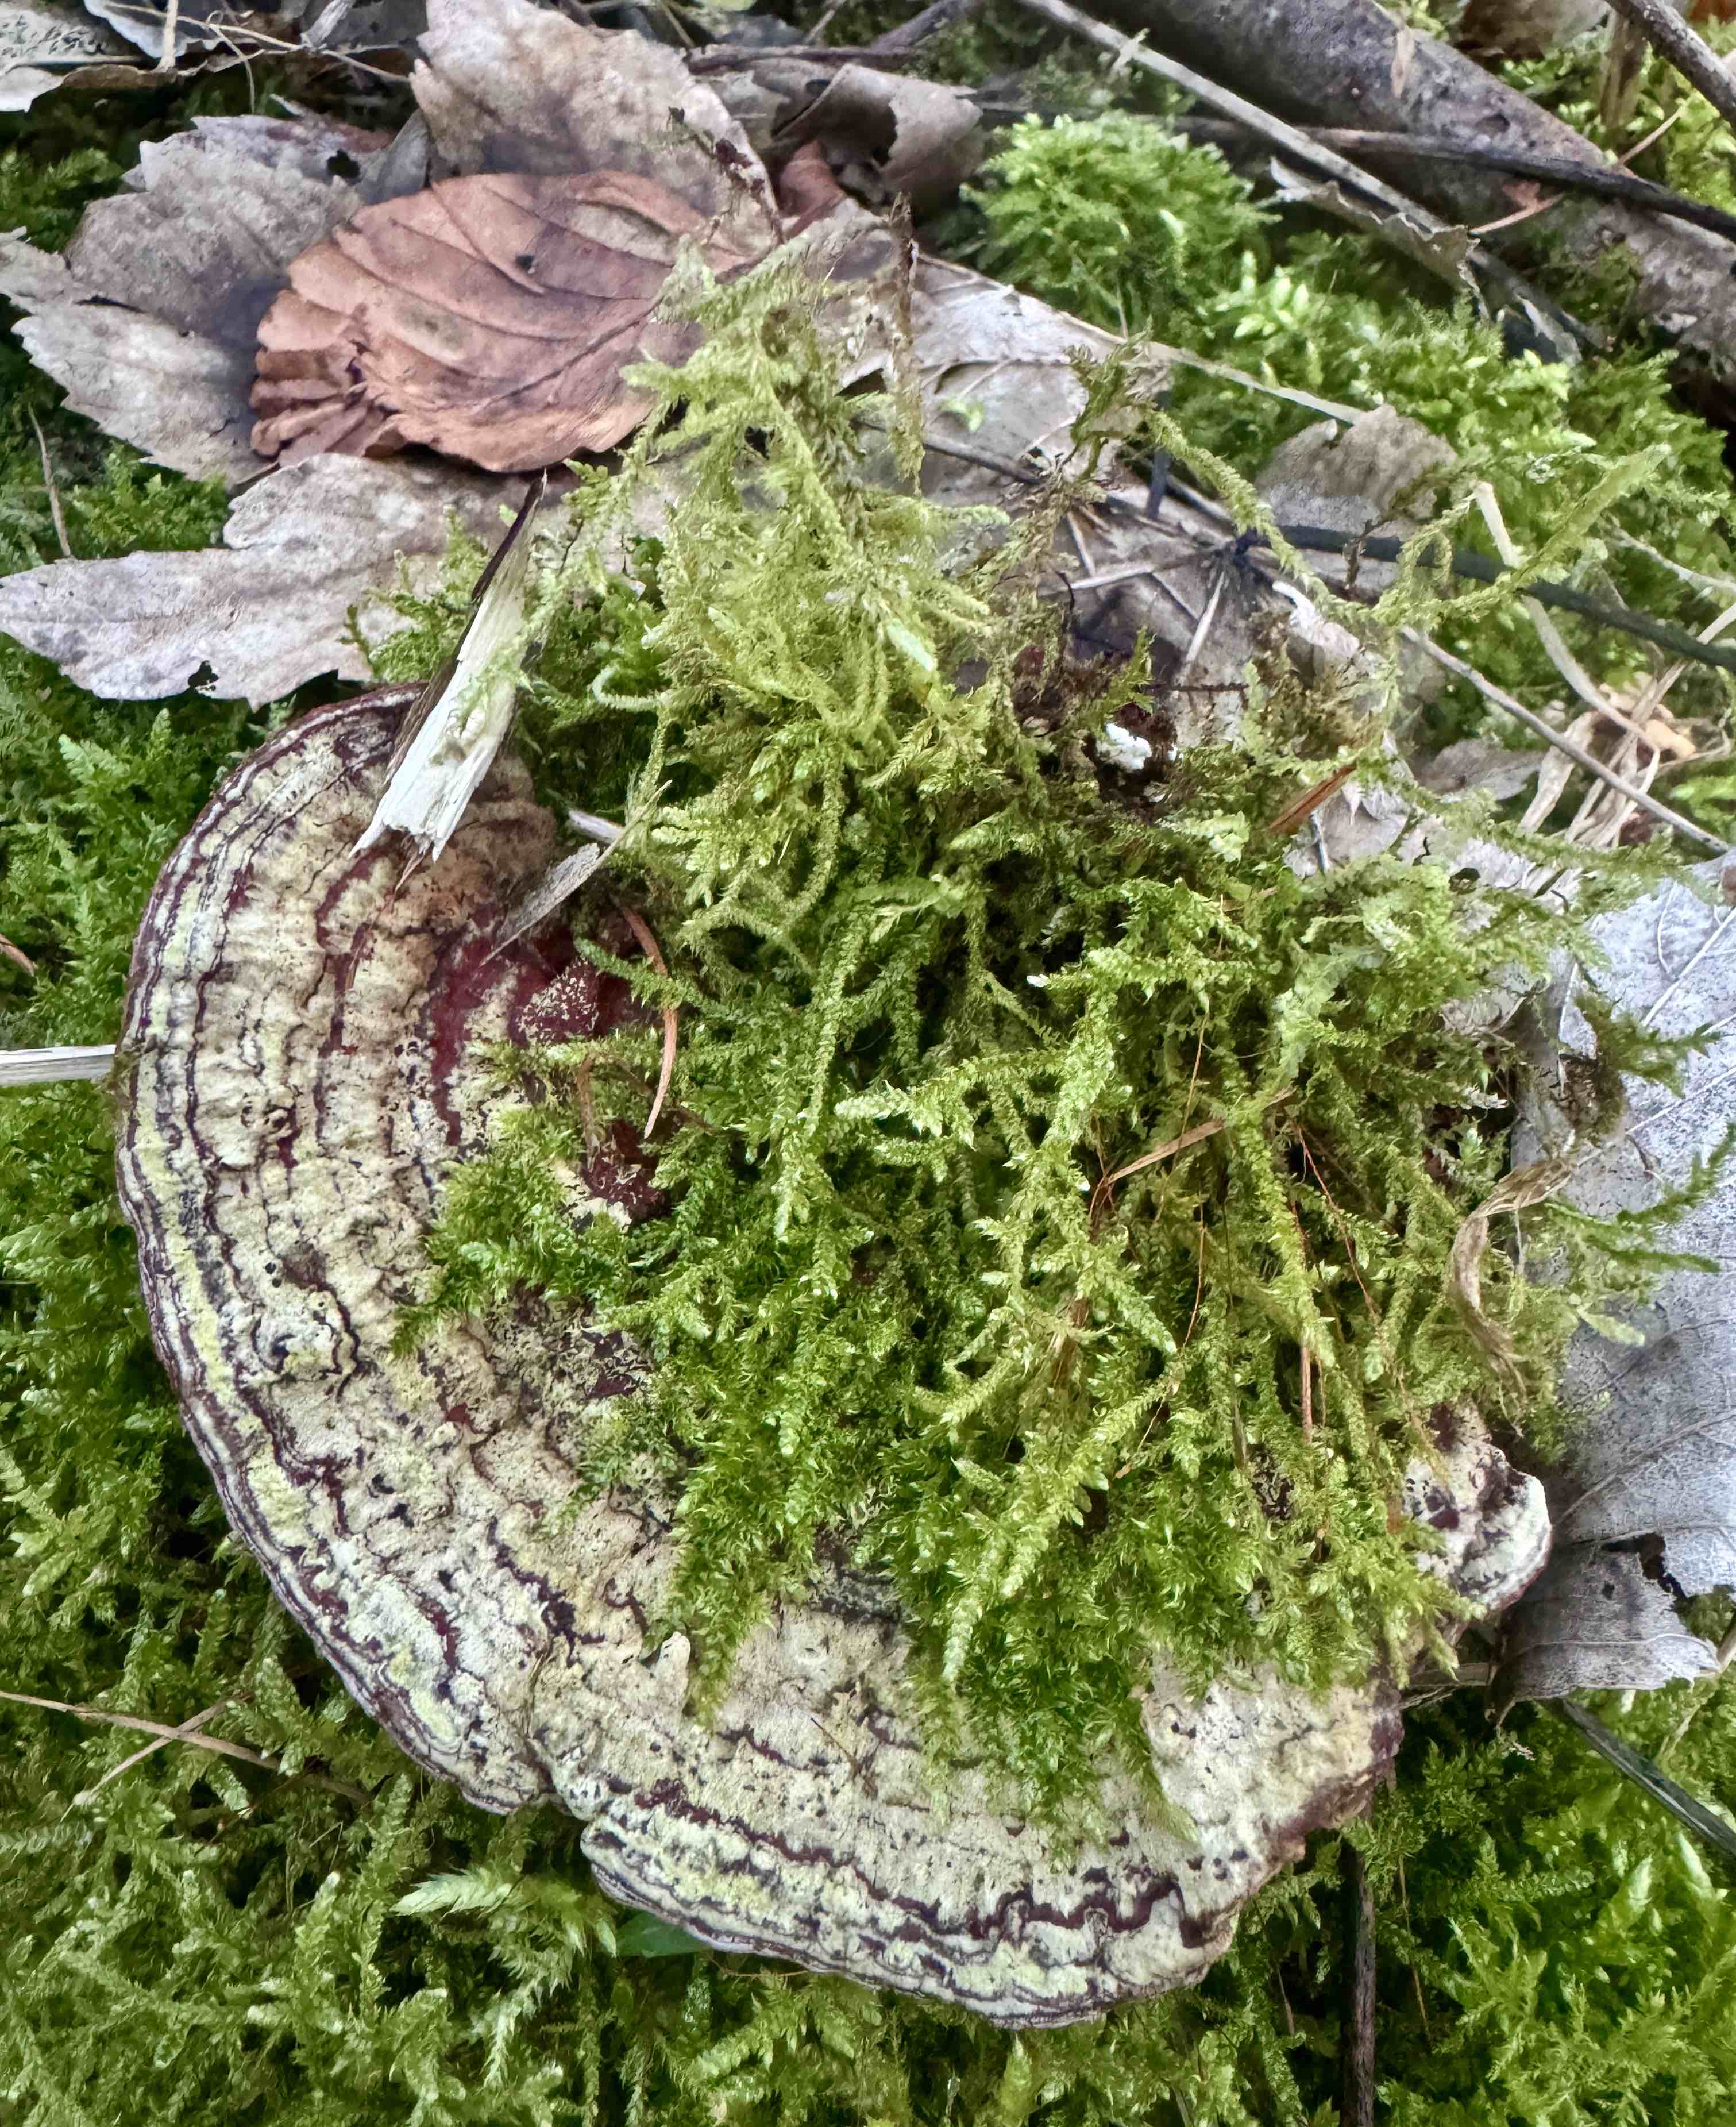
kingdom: Fungi
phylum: Basidiomycota
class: Agaricomycetes
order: Russulales
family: Bondarzewiaceae
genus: Heterobasidion
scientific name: Heterobasidion annosum
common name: almindelig rodfordærver
